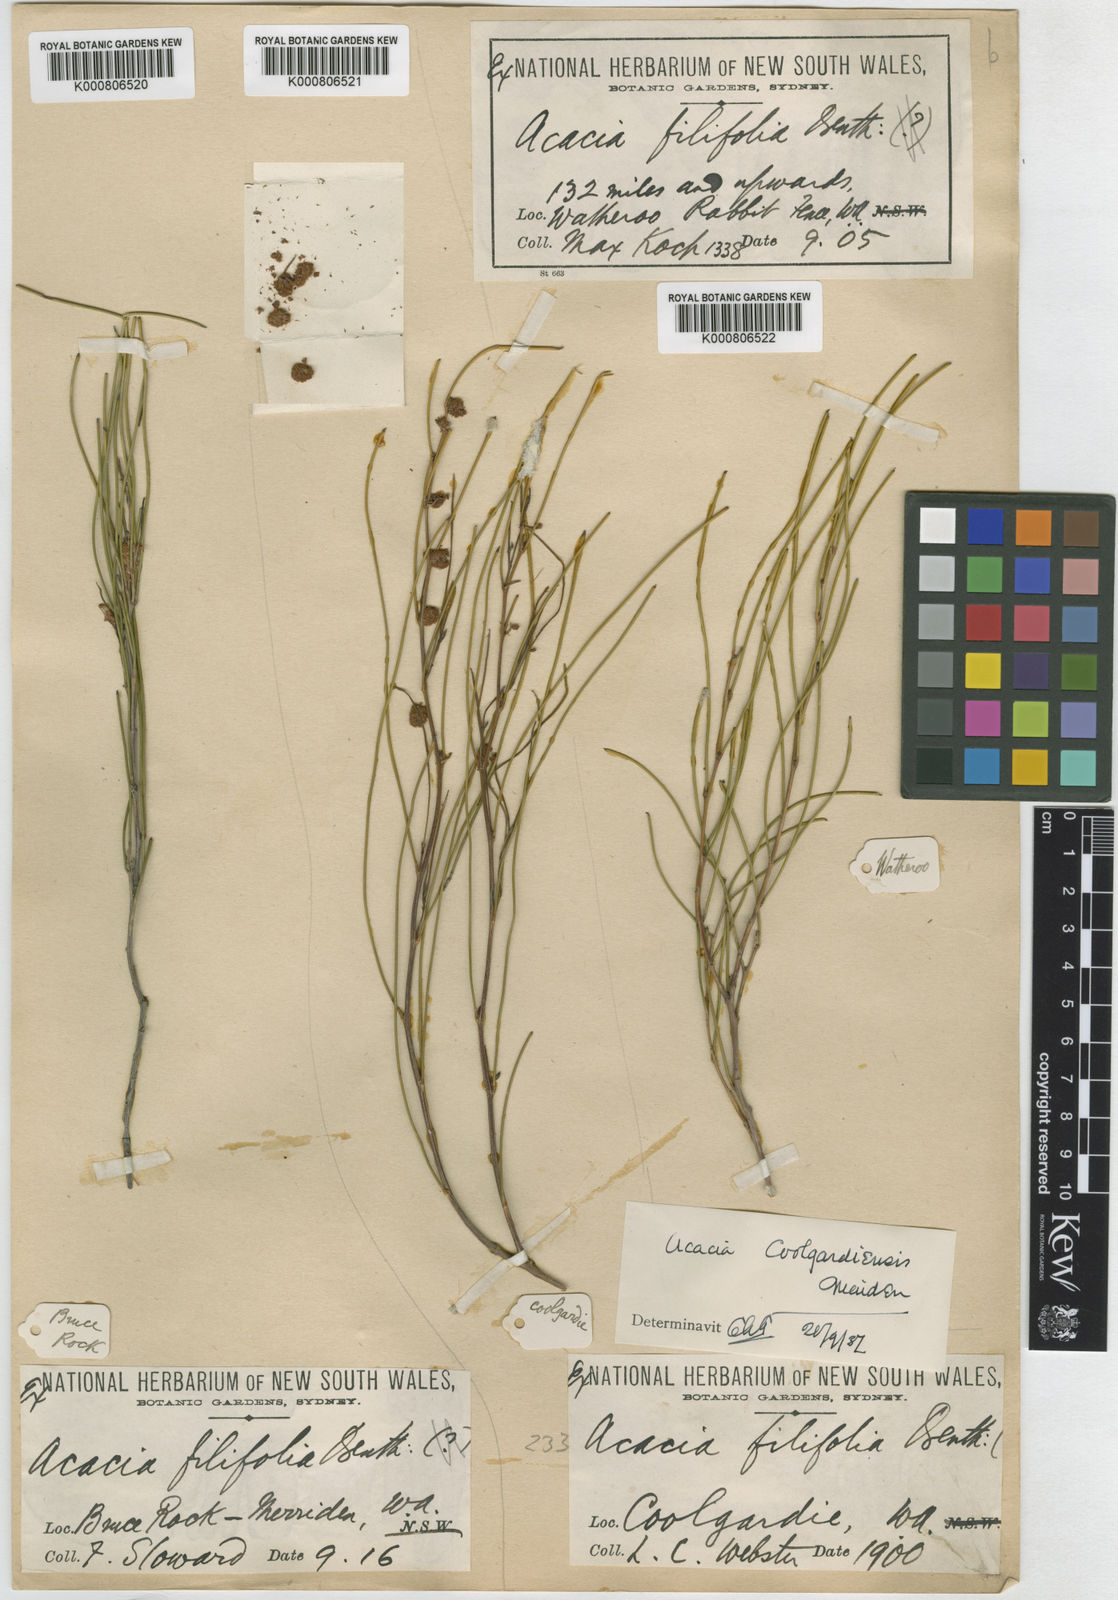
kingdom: Plantae
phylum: Tracheophyta
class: Magnoliopsida
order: Fabales
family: Fabaceae
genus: Acacia
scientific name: Acacia coolgardiensis
